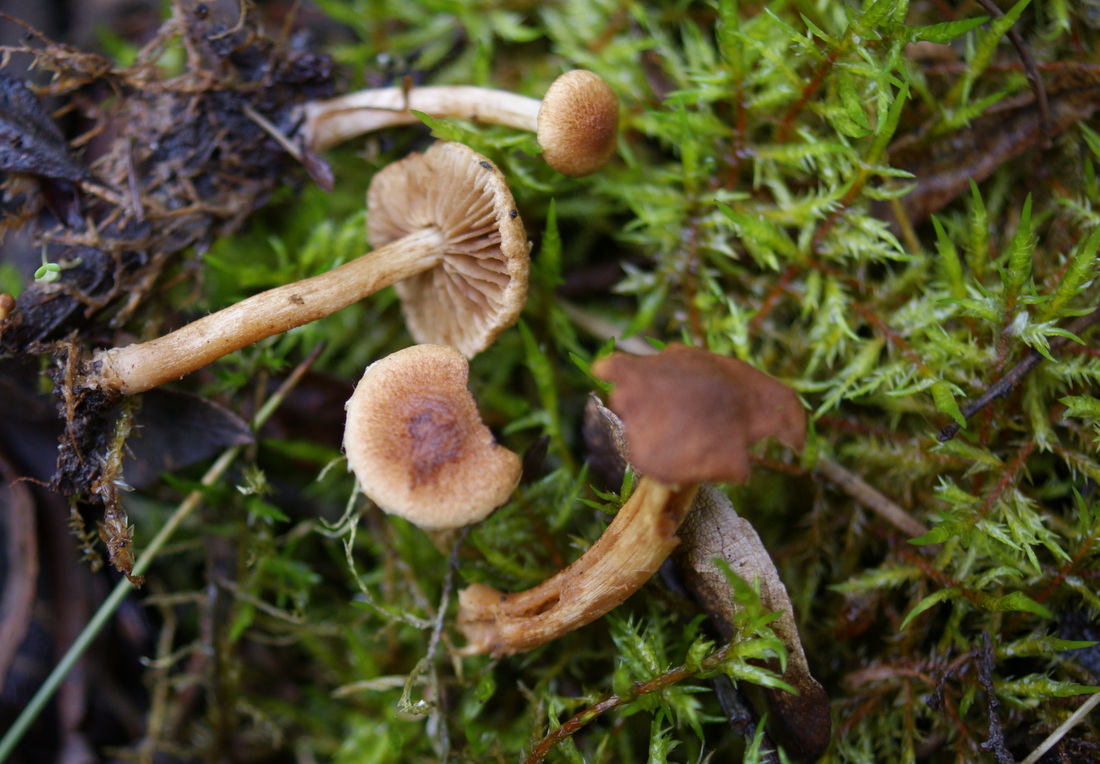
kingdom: Fungi
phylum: Basidiomycota
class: Agaricomycetes
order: Agaricales
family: Inocybaceae
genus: Mallocybe
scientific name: Mallocybe
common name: Trævlhat
